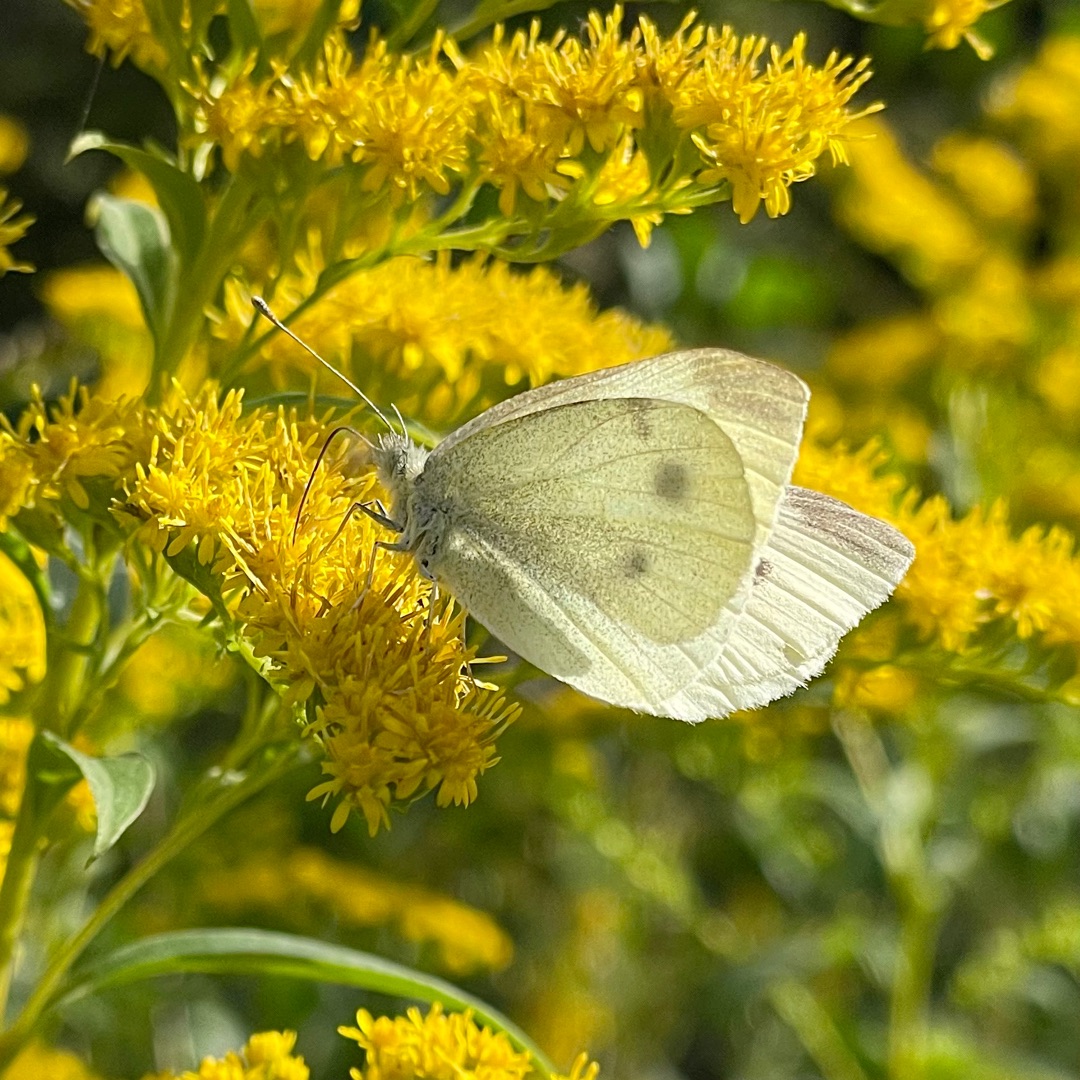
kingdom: Animalia
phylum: Arthropoda
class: Insecta
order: Lepidoptera
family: Pieridae
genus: Pieris
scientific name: Pieris rapae
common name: Lille kålsommerfugl
